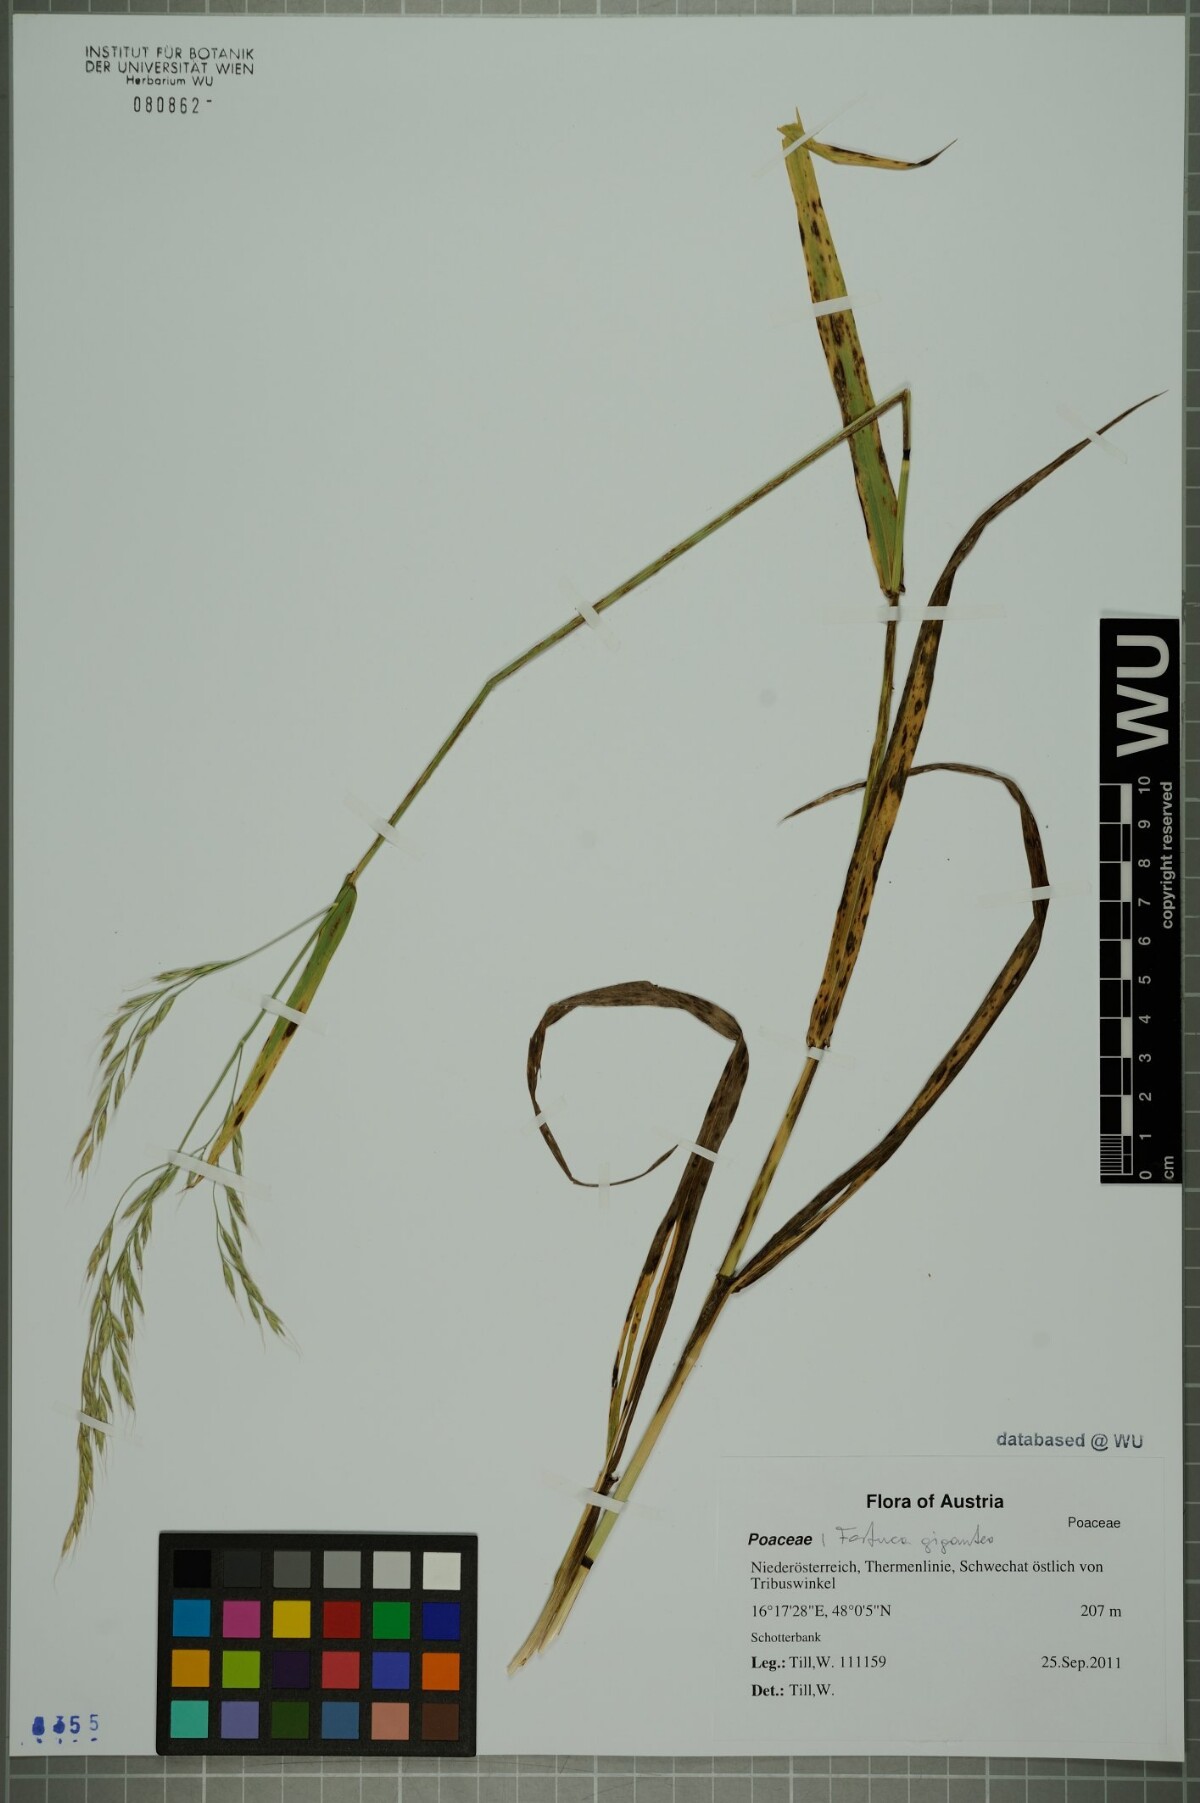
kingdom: Plantae
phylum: Tracheophyta
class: Liliopsida
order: Poales
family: Poaceae
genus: Lolium
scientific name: Lolium giganteum
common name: Giant fescue
